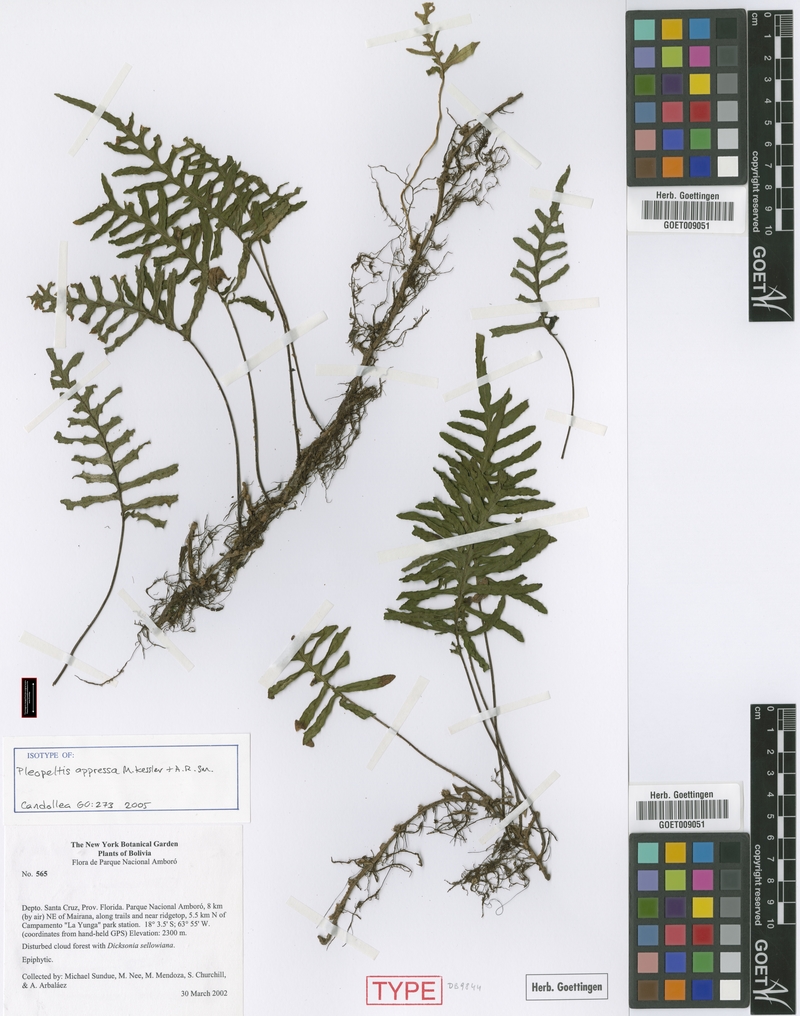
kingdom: Plantae
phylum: Tracheophyta
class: Polypodiopsida
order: Polypodiales
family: Polypodiaceae
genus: Pleopeltis
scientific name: Pleopeltis appressa
